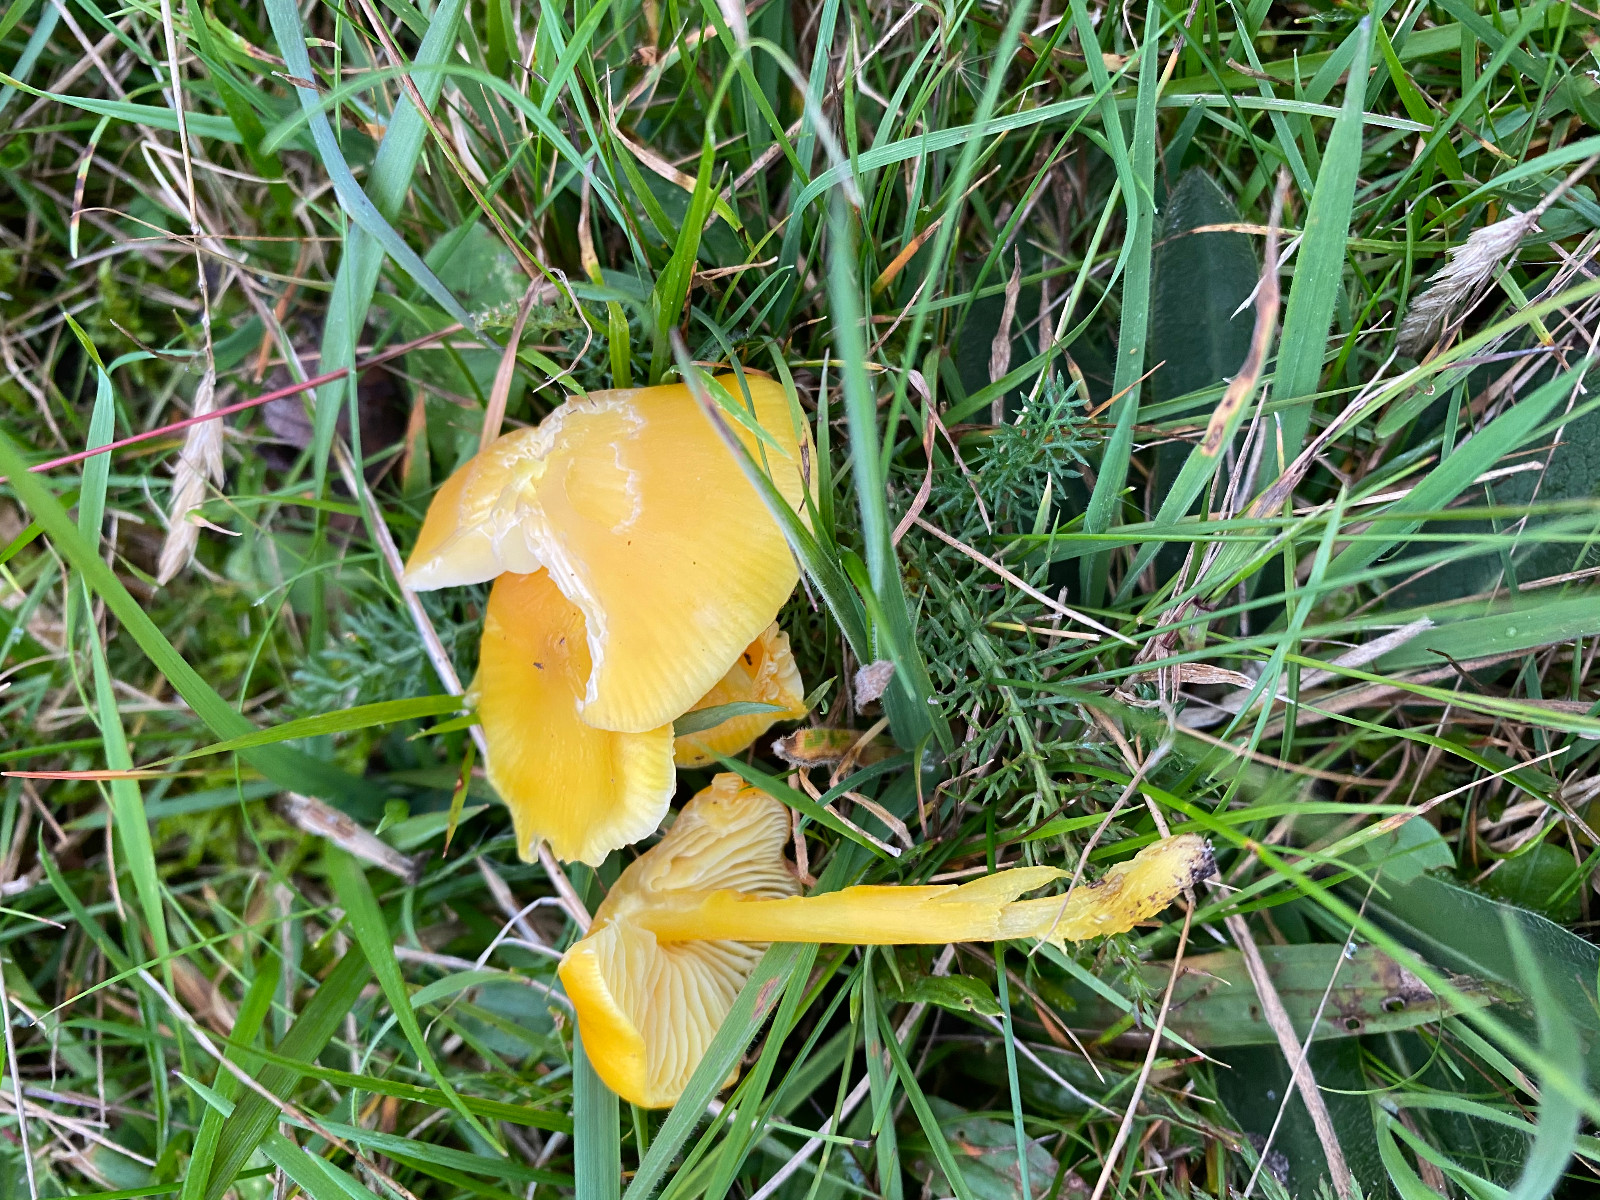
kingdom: Fungi
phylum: Basidiomycota
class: Agaricomycetes
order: Agaricales
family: Hygrophoraceae
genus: Hygrocybe
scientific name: Hygrocybe chlorophana
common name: gul vokshat
